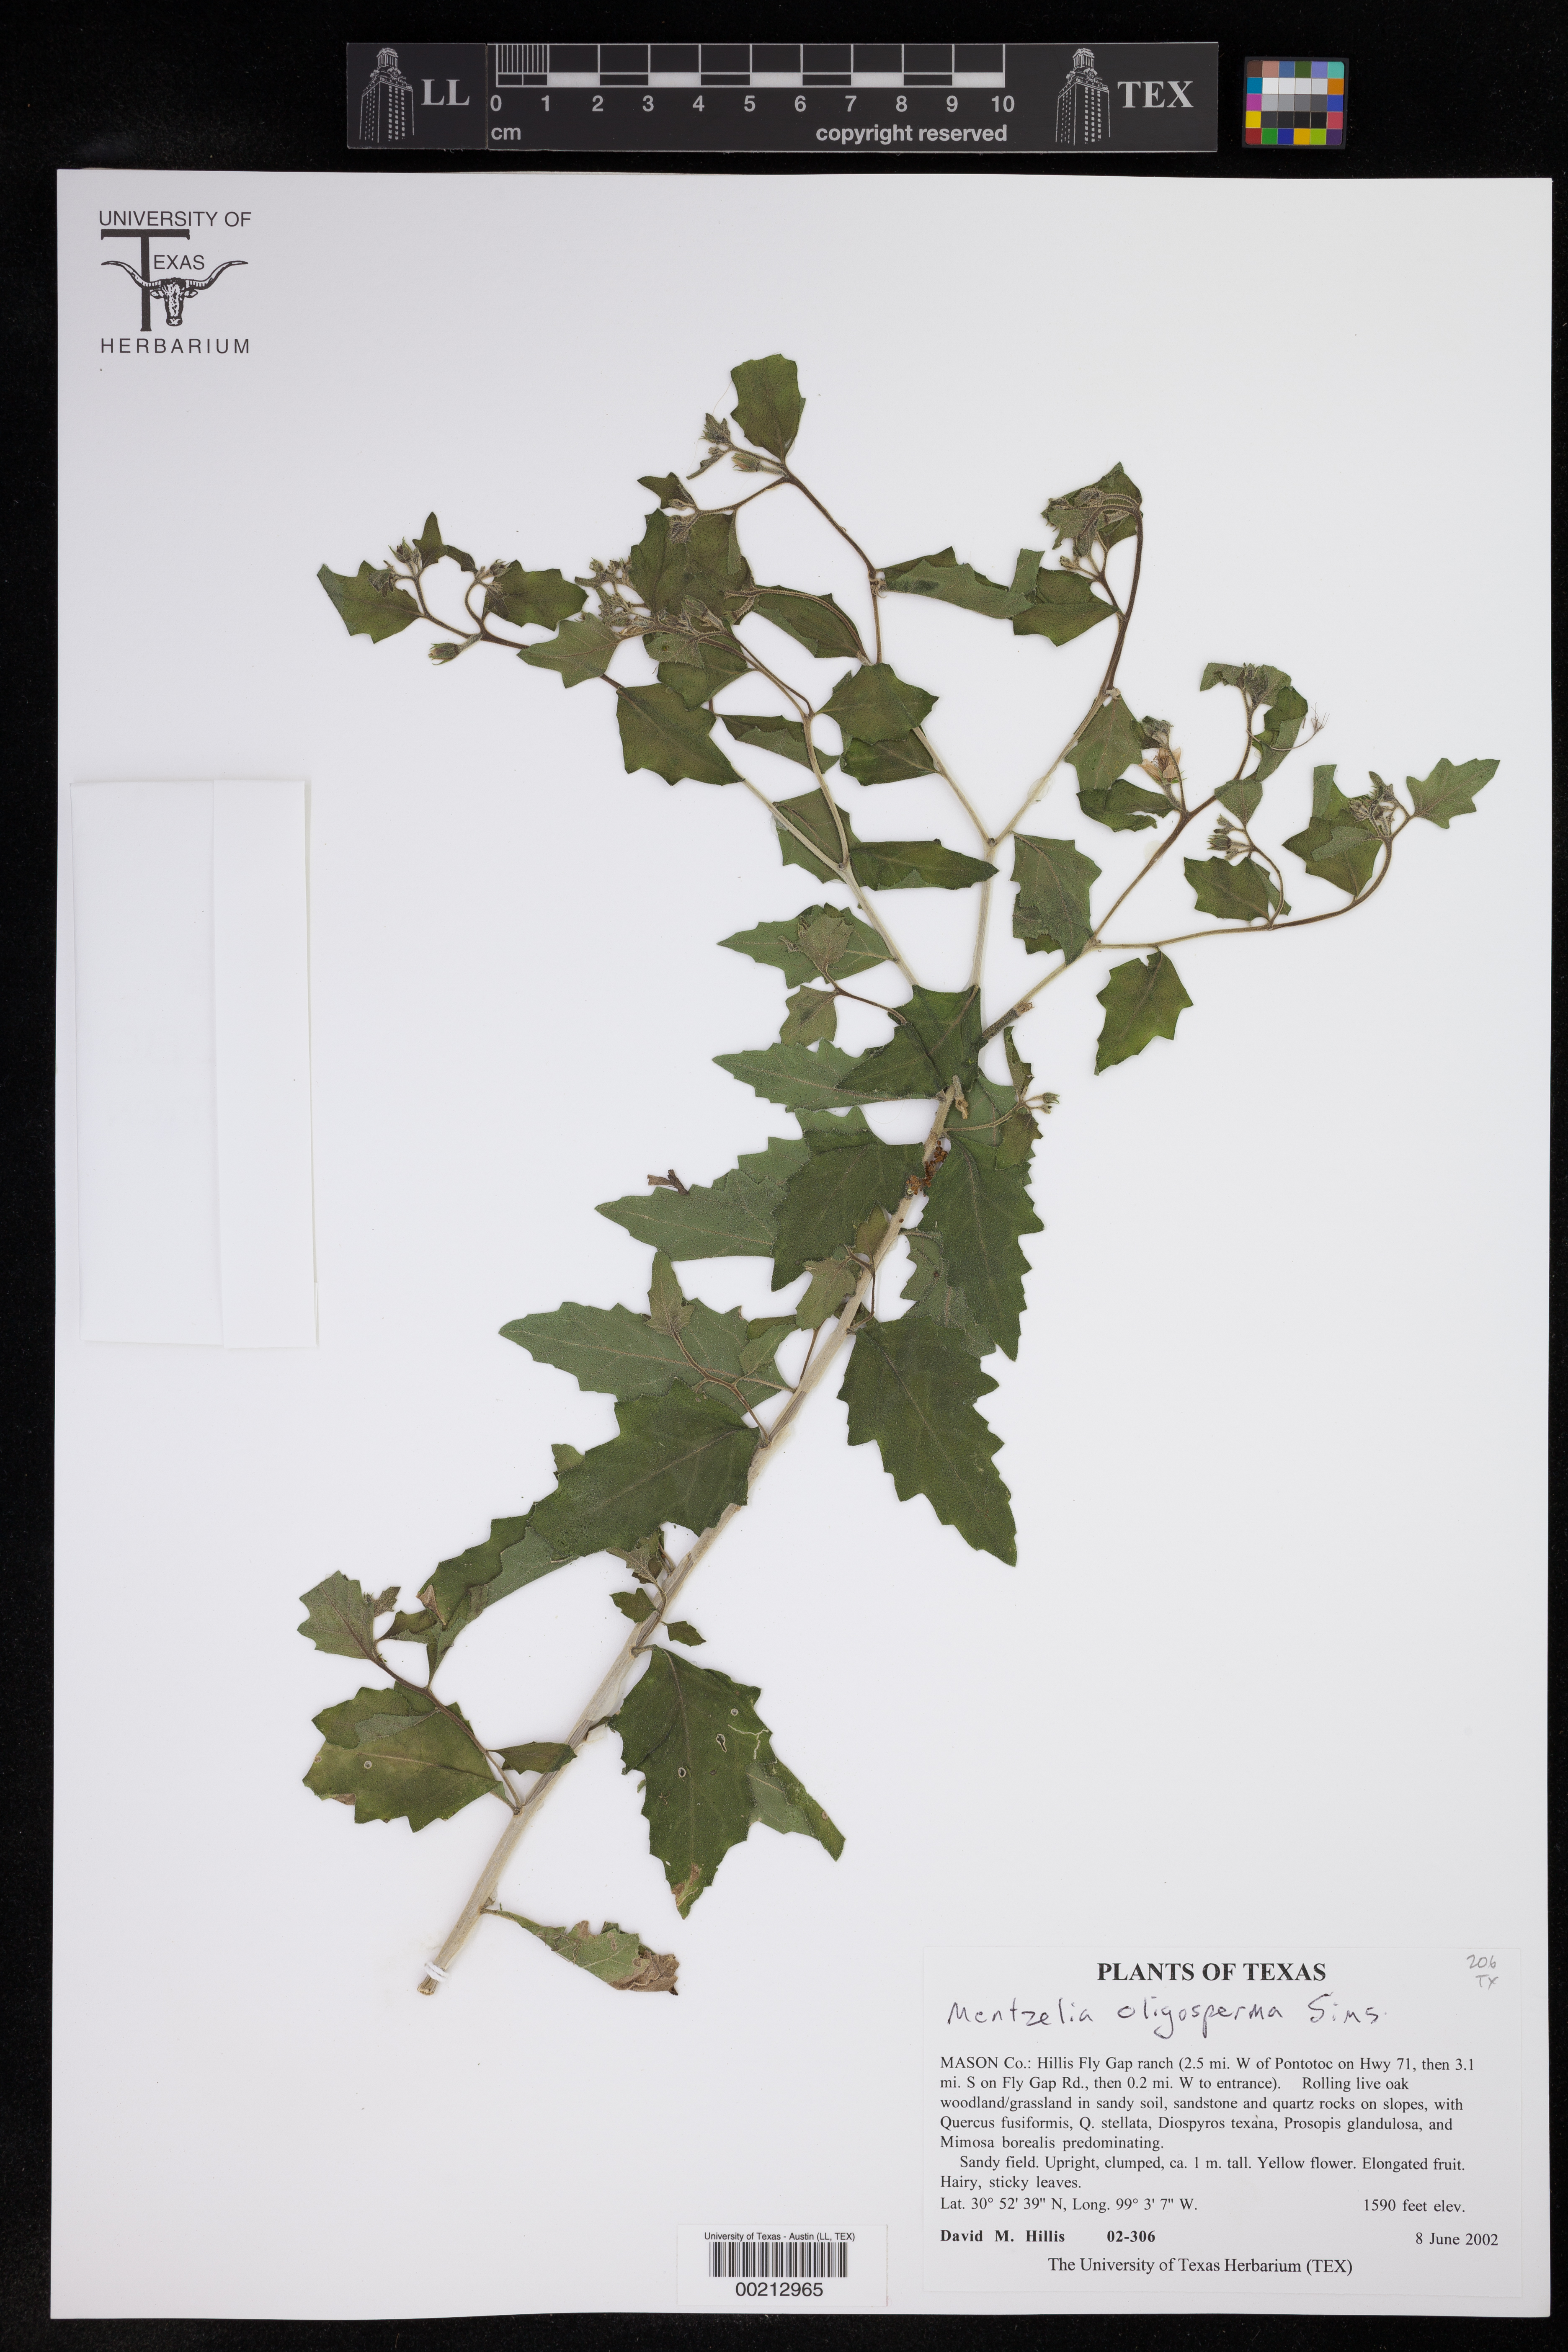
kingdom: Plantae
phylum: Tracheophyta
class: Magnoliopsida
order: Cornales
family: Loasaceae
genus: Mentzelia
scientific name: Mentzelia oligosperma
